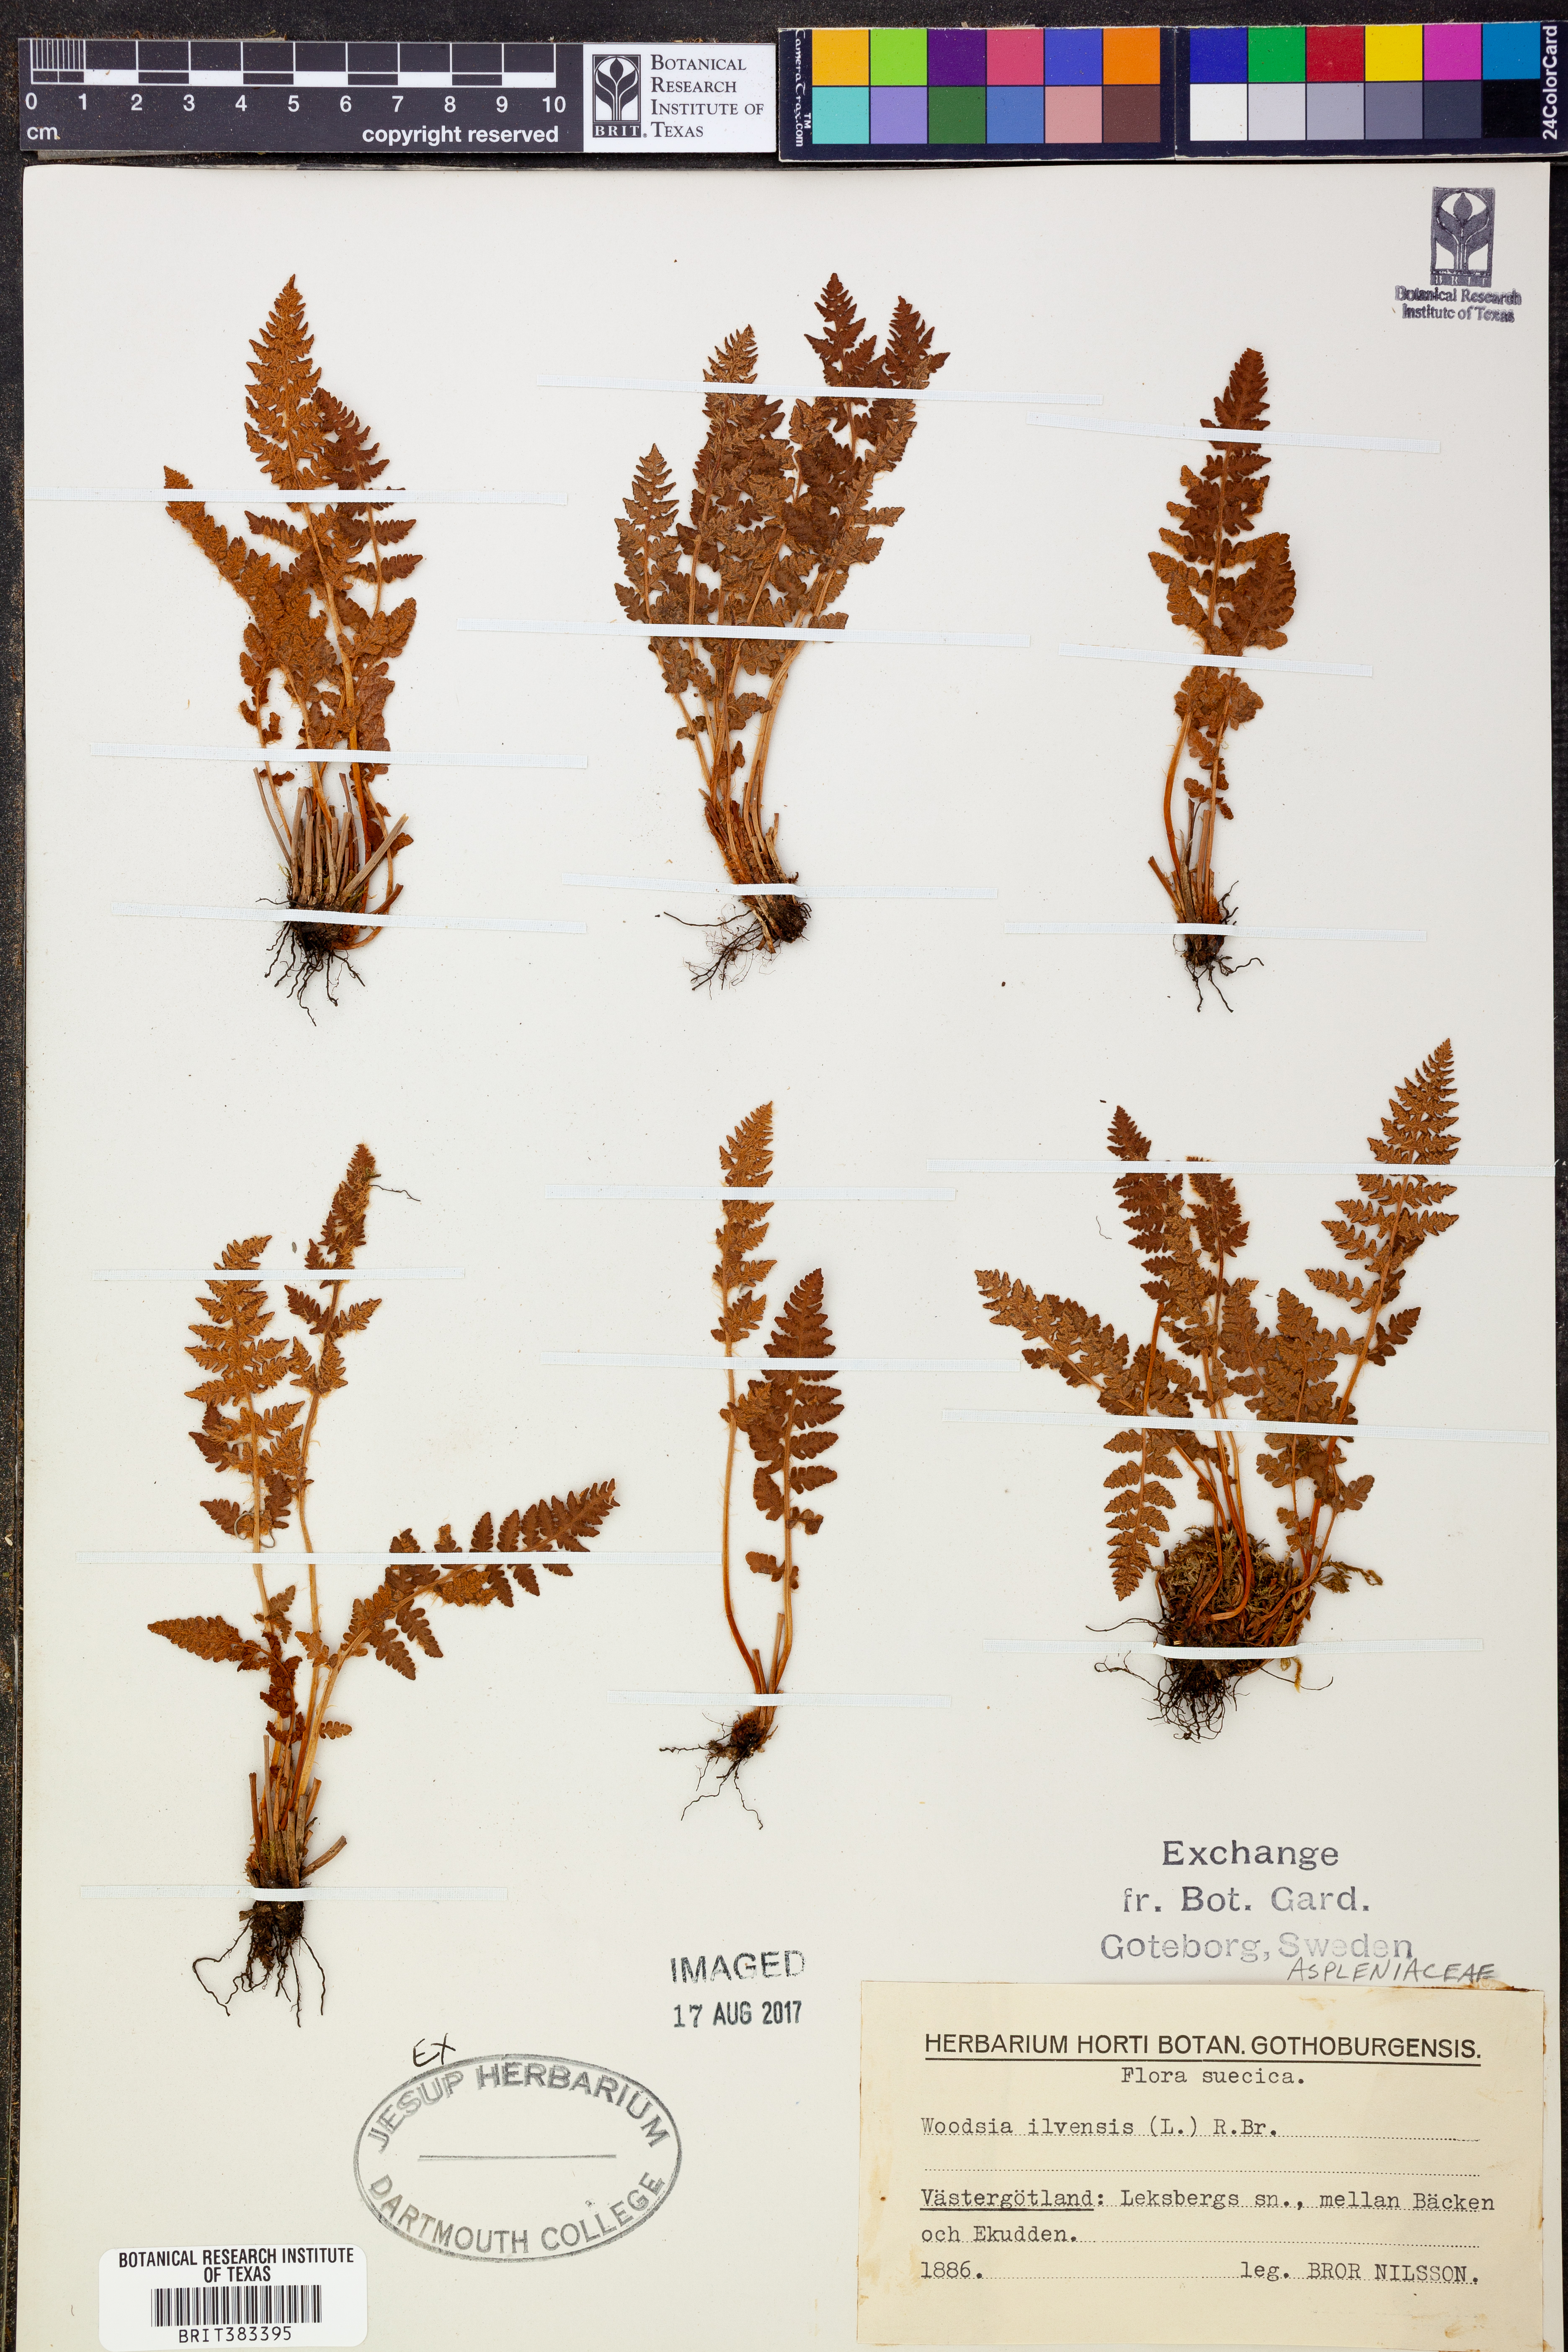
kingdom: Plantae
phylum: Tracheophyta
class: Polypodiopsida
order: Polypodiales
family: Woodsiaceae
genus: Woodsia
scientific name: Woodsia ilvensis
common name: Fragrant woodsia
